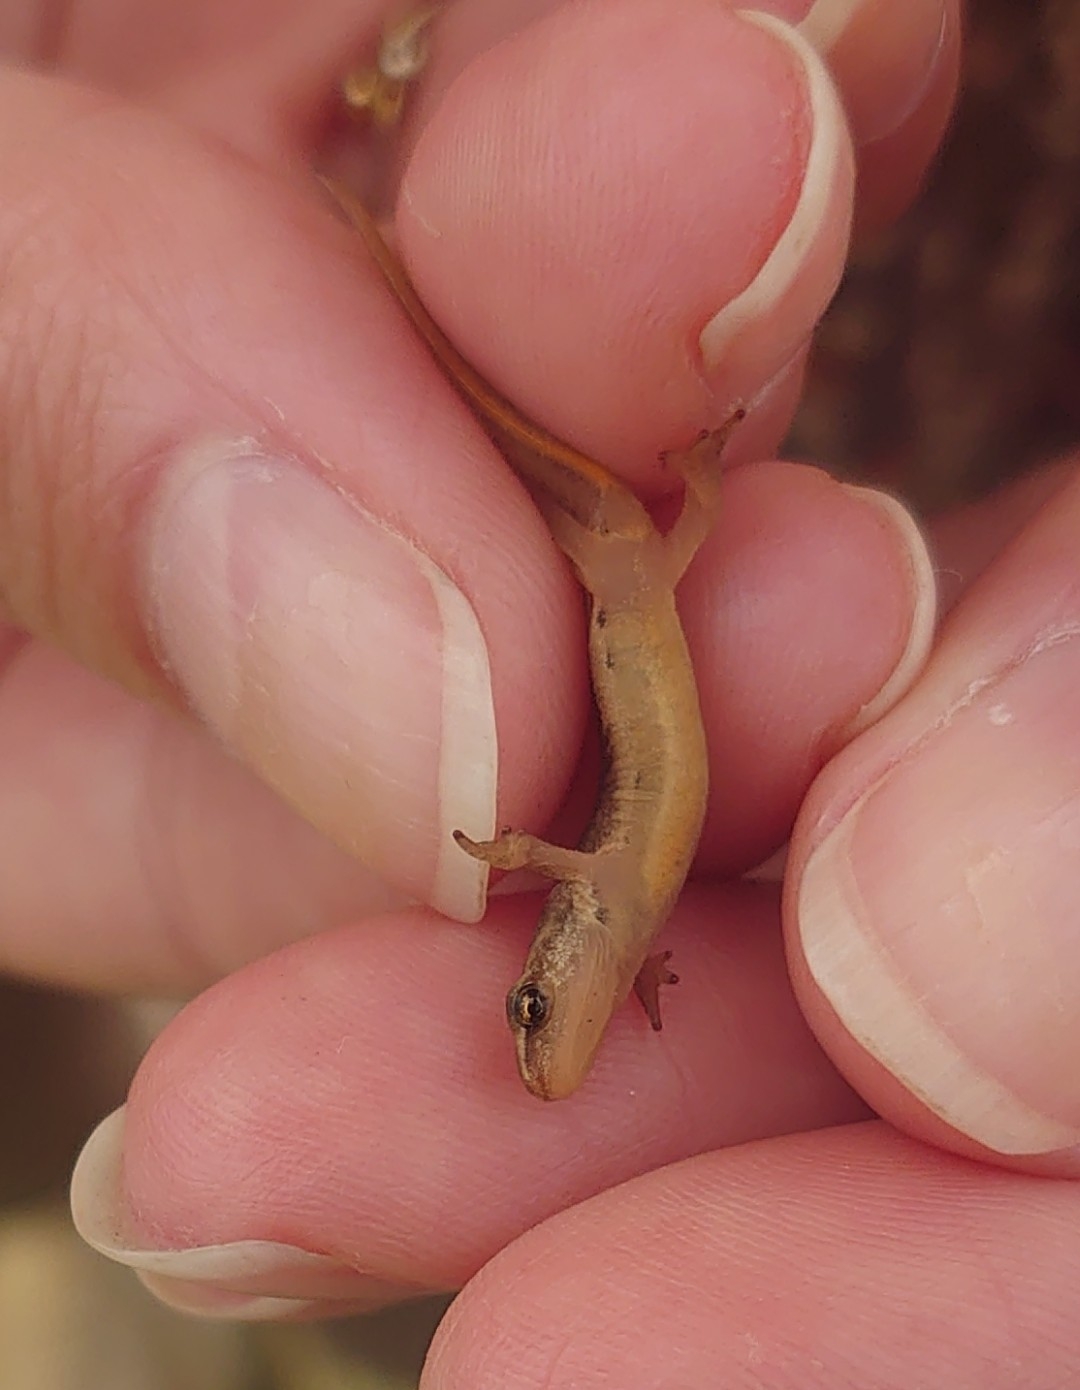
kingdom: Animalia
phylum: Chordata
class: Amphibia
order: Caudata
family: Salamandridae
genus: Lissotriton
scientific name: Lissotriton vulgaris
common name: Lille vandsalamander
